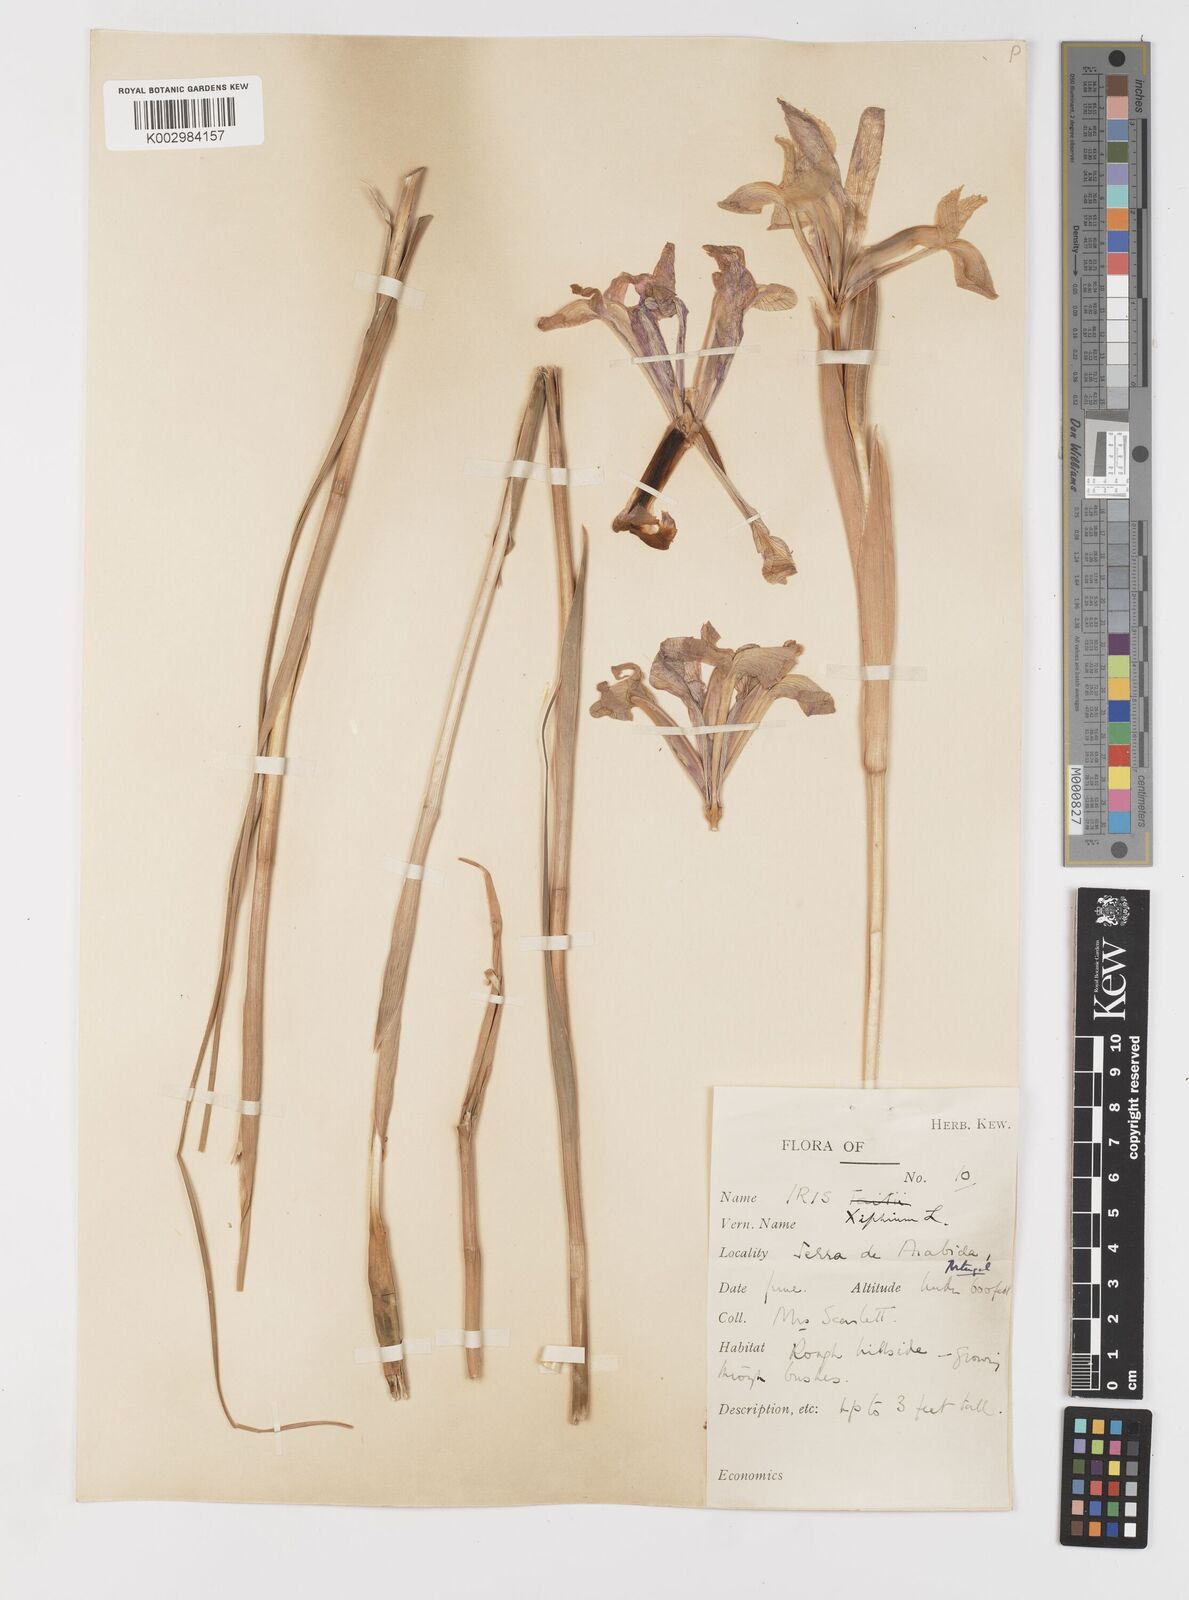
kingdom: Plantae
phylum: Tracheophyta
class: Liliopsida
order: Asparagales
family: Iridaceae
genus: Iris
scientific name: Iris xiphium
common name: Spanish iris
